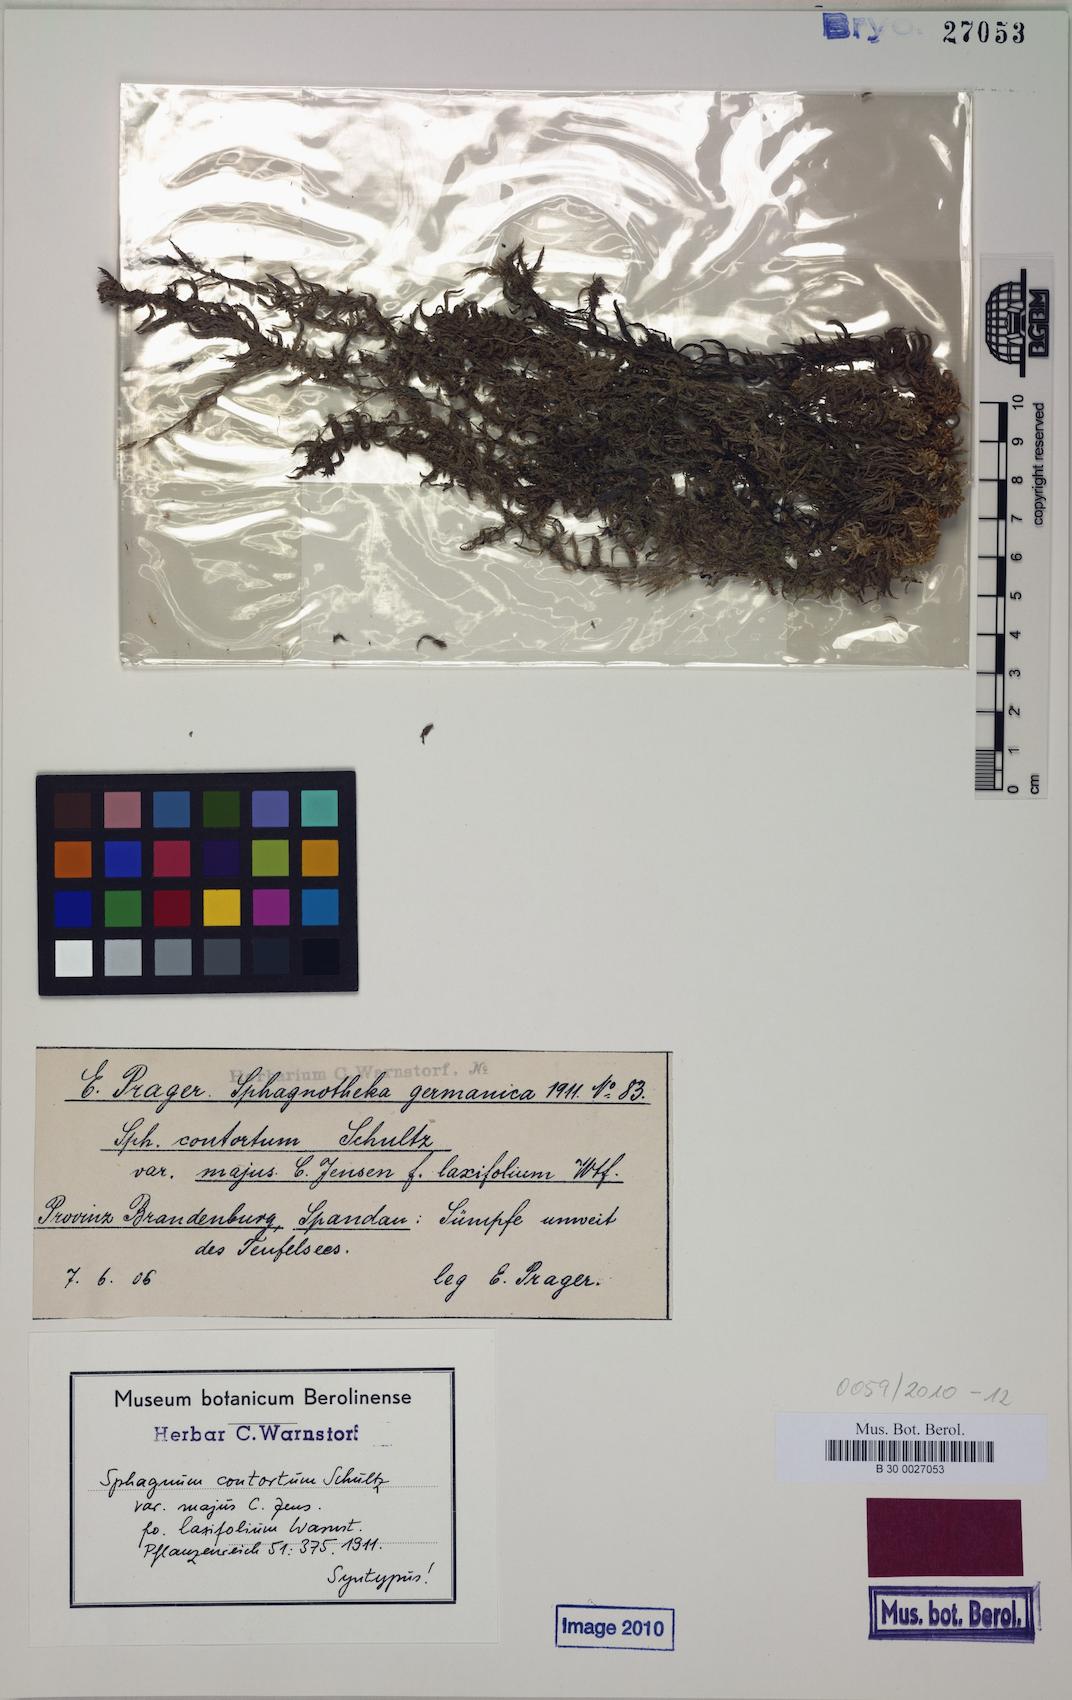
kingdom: Plantae
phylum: Bryophyta
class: Sphagnopsida
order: Sphagnales
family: Sphagnaceae
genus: Sphagnum
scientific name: Sphagnum contortum
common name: Twisted peat moss
